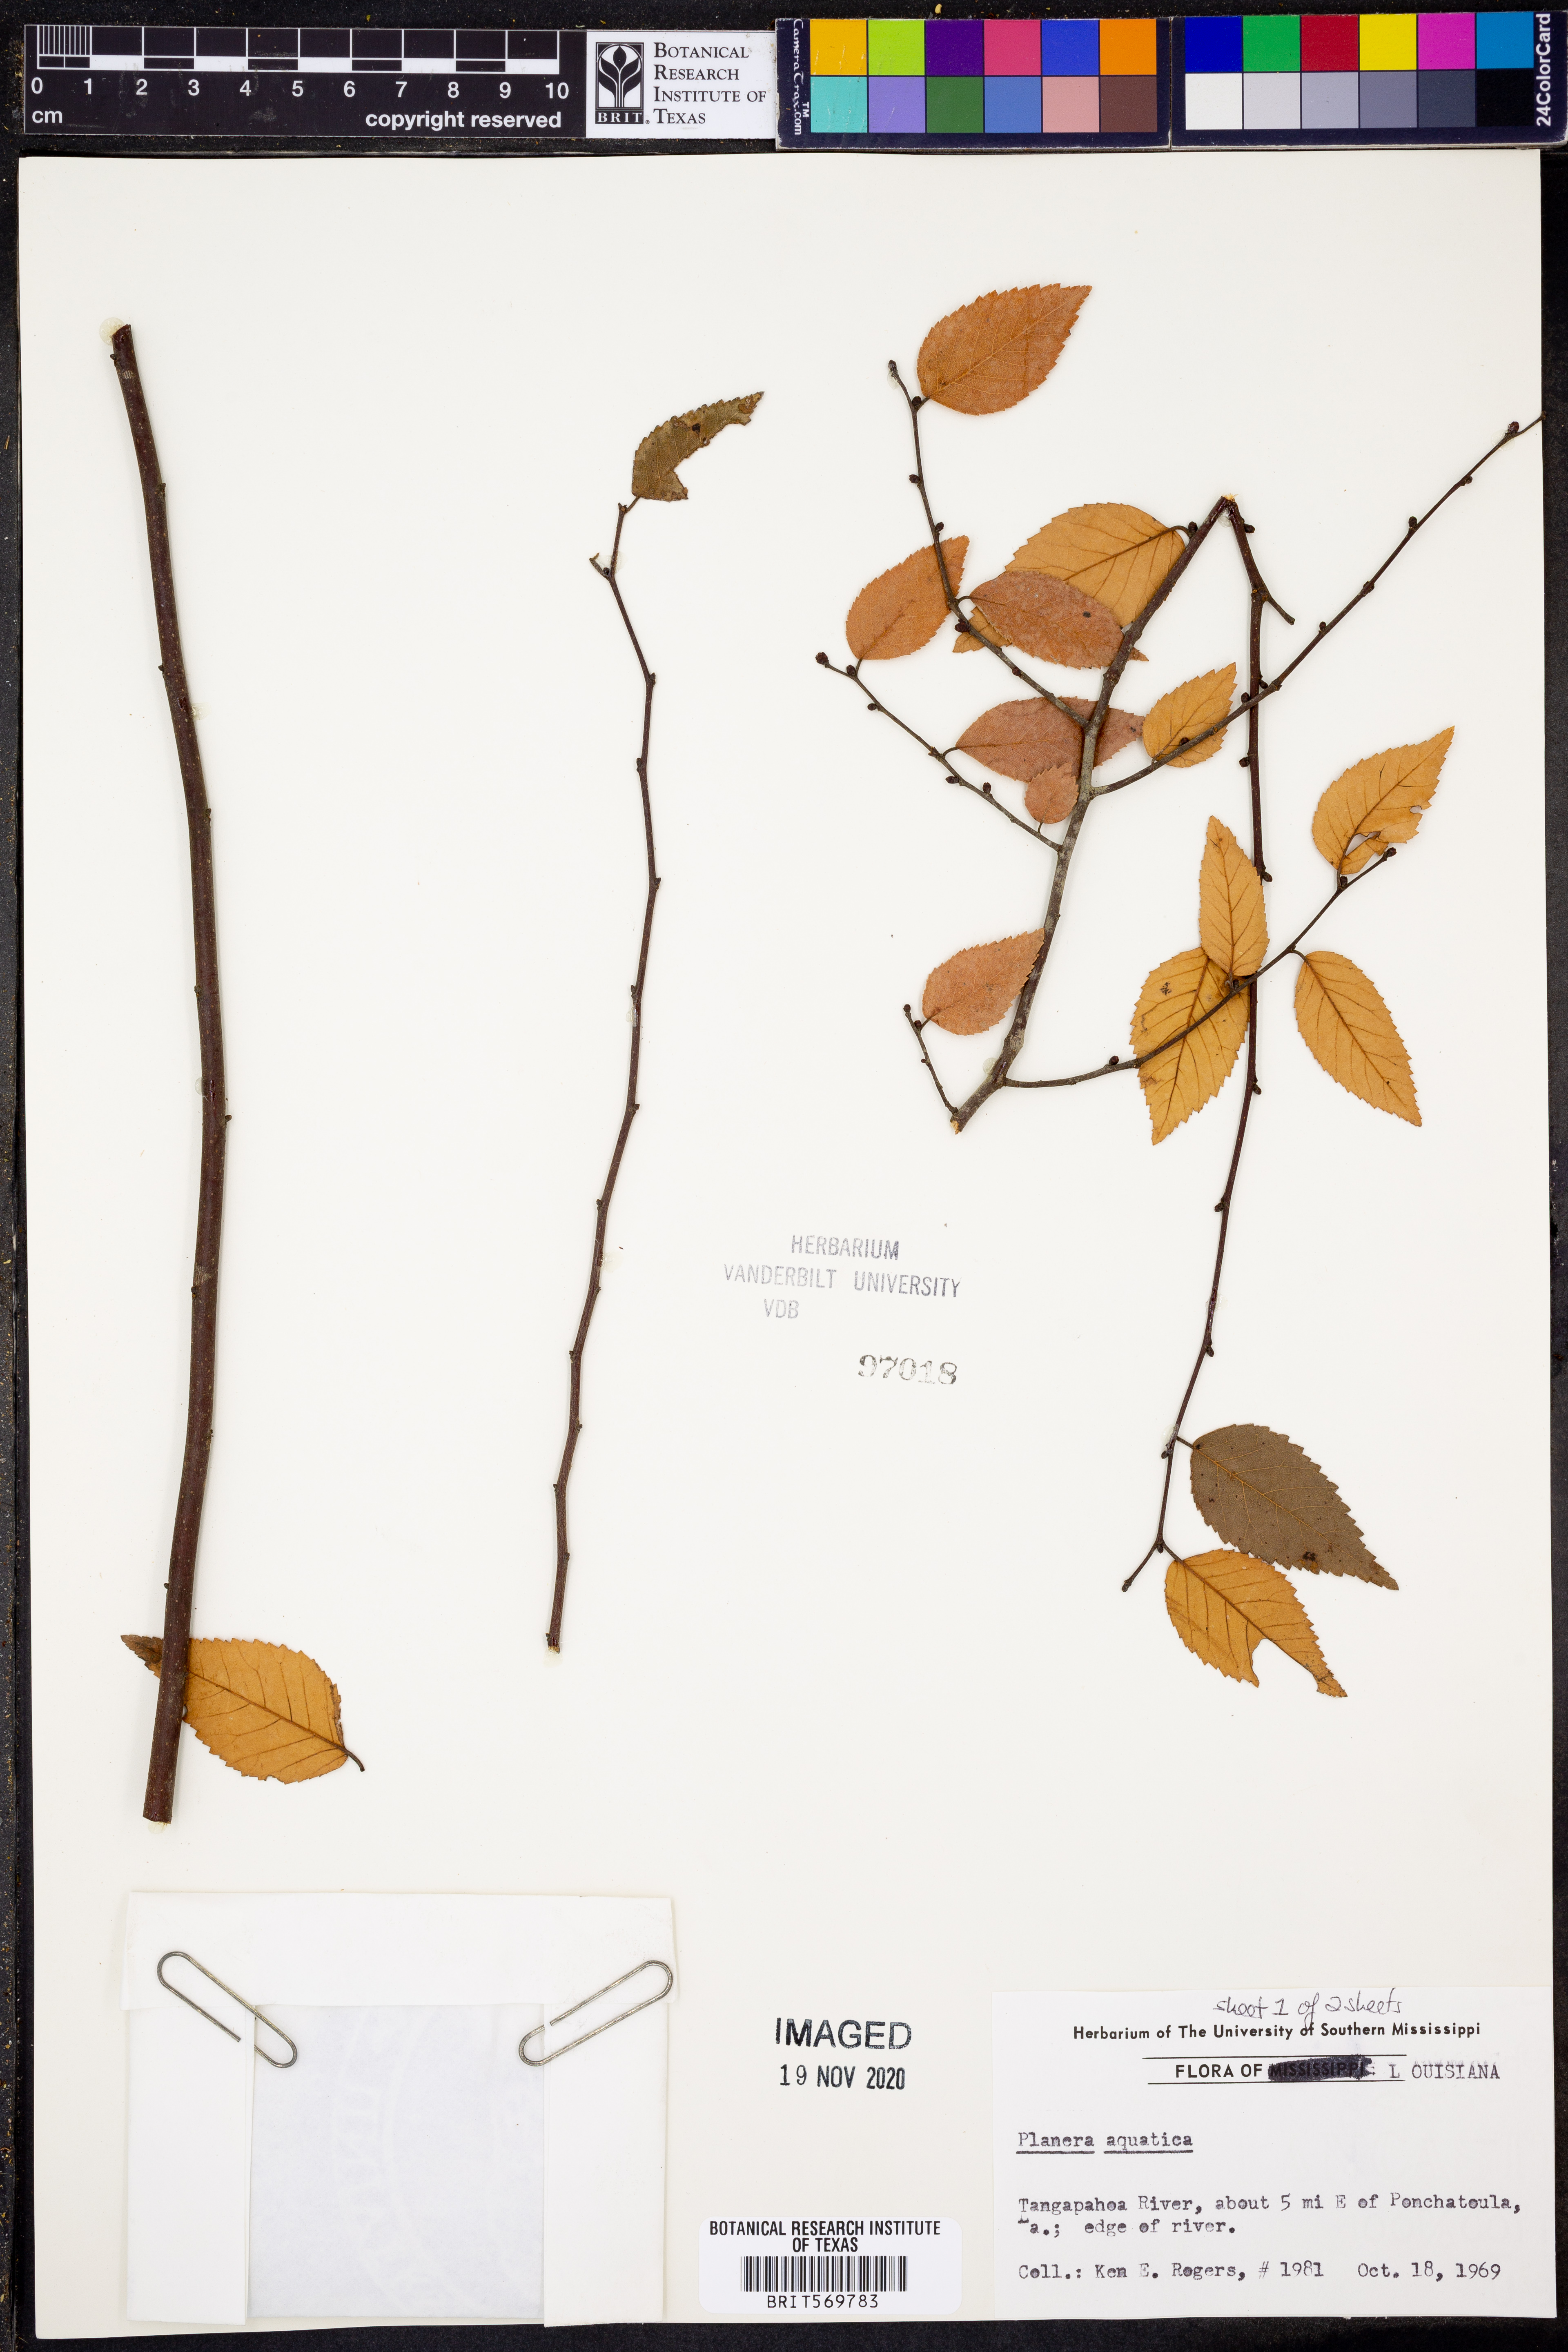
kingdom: Plantae
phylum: Tracheophyta
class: Magnoliopsida
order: Rosales
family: Ulmaceae
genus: Planera
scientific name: Planera aquatica
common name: Water-elm
